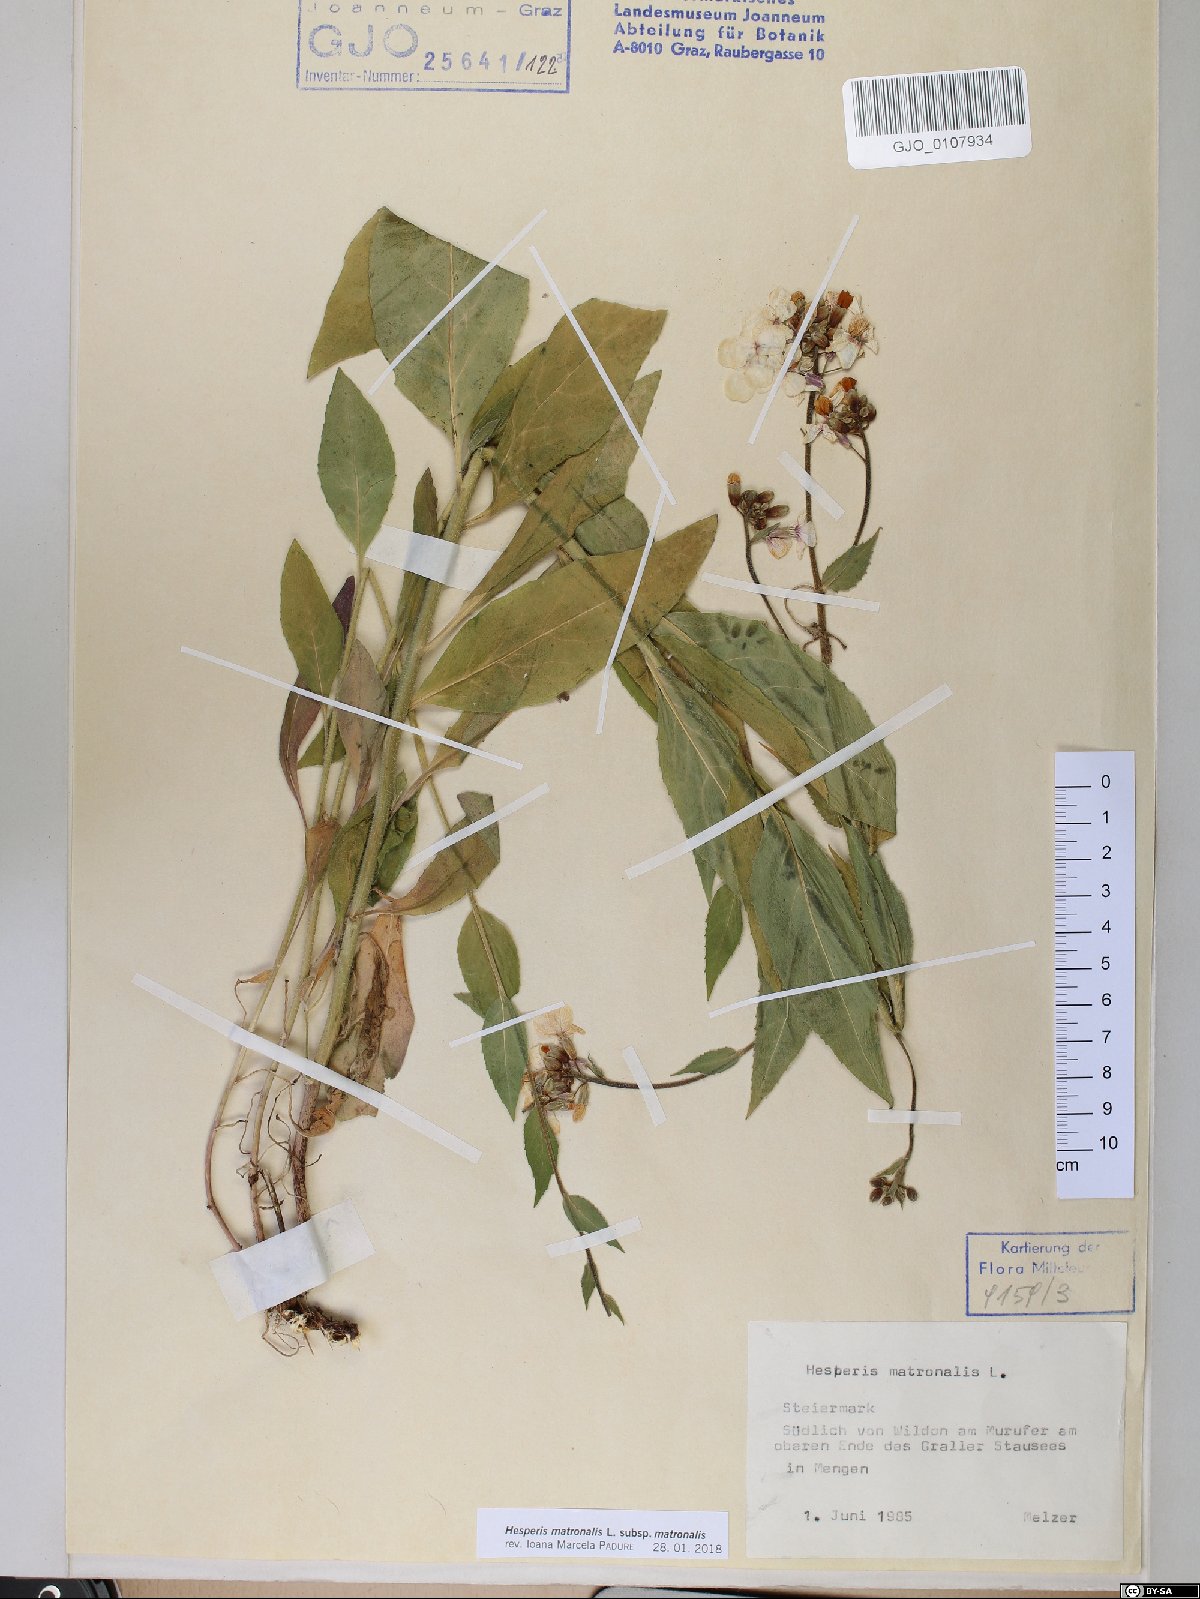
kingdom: Plantae
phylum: Tracheophyta
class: Magnoliopsida
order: Brassicales
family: Brassicaceae
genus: Hesperis
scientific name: Hesperis matronalis
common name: Dame's-violet
